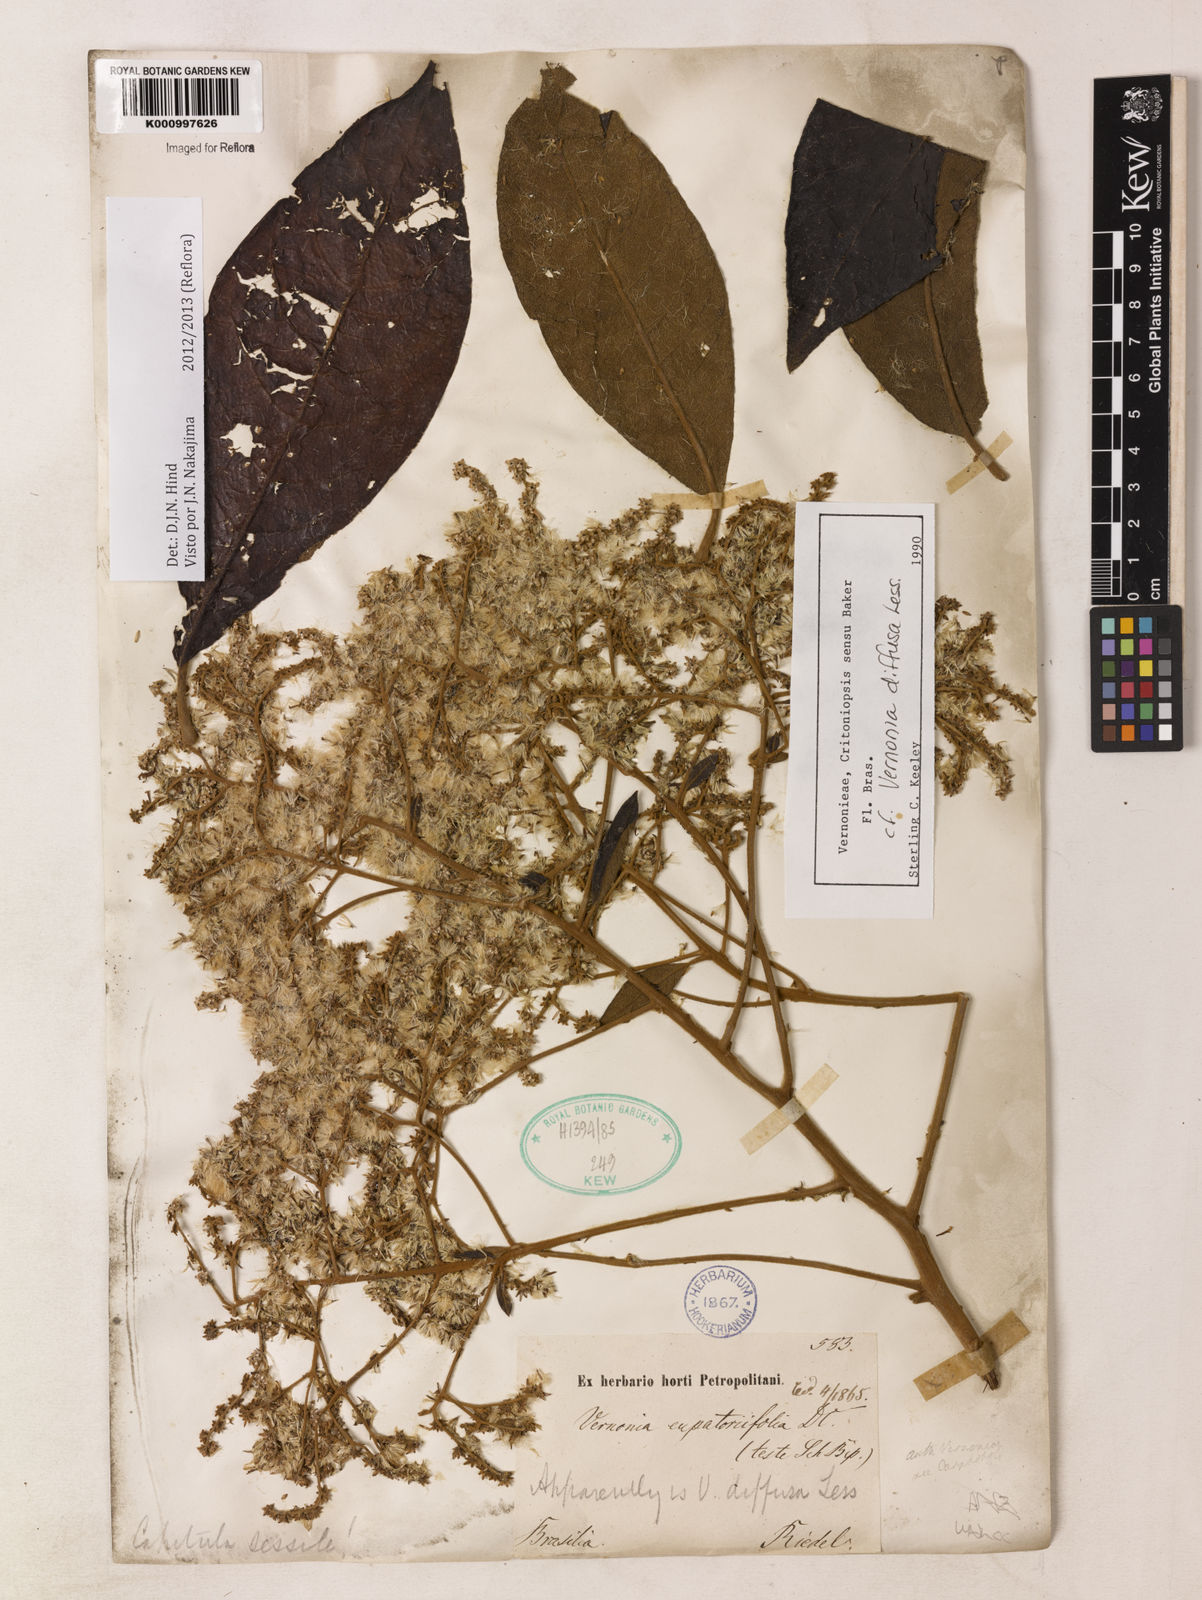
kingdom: Plantae
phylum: Tracheophyta
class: Magnoliopsida
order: Asterales
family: Asteraceae
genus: Vernonanthura
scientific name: Vernonanthura divaricata
